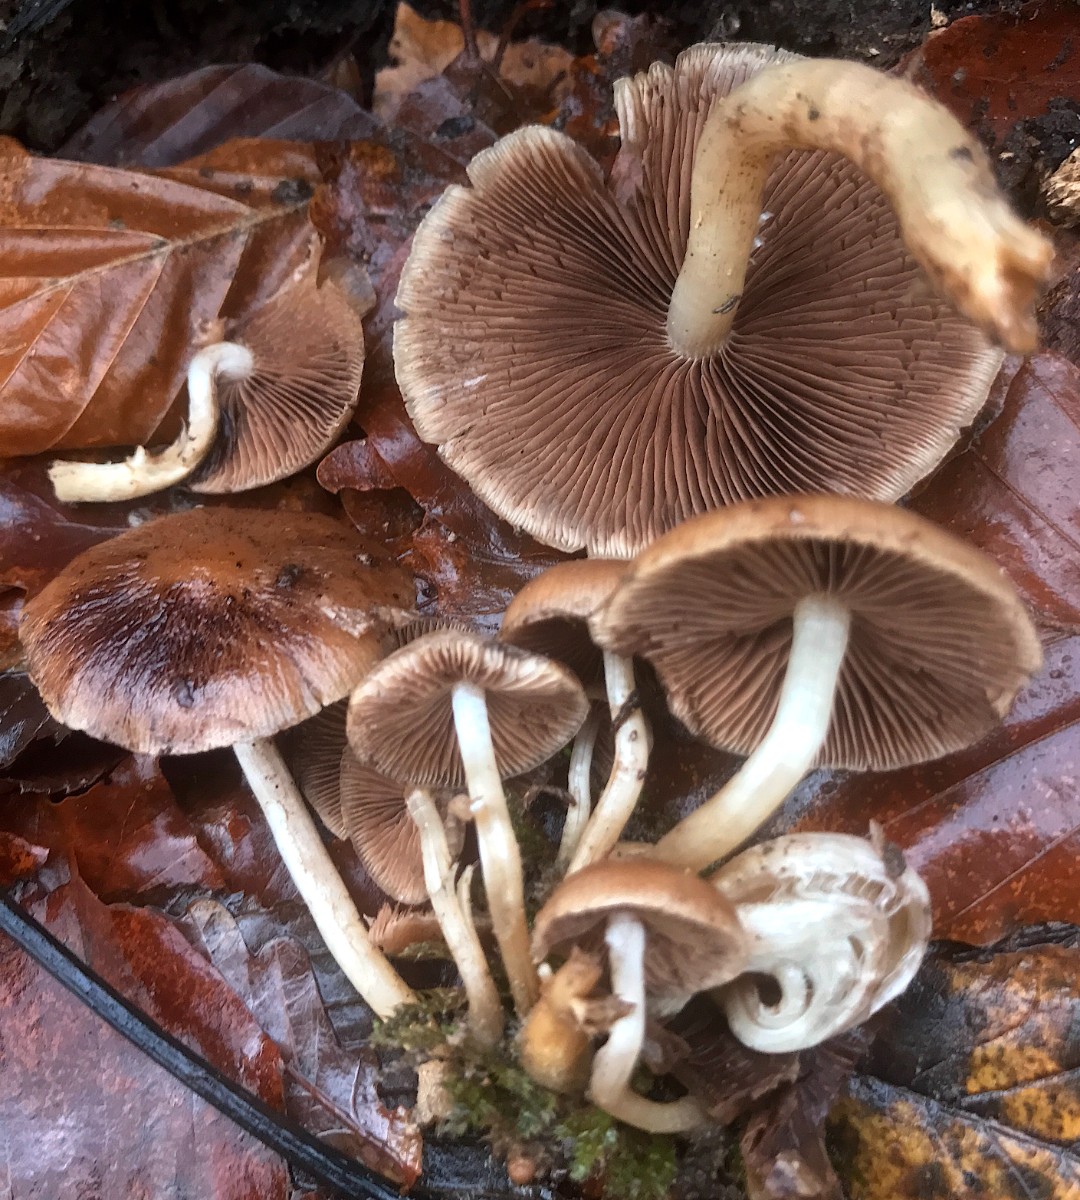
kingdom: Fungi
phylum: Basidiomycota
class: Agaricomycetes
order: Agaricales
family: Psathyrellaceae
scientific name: Psathyrellaceae
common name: mørkhatfamilien
